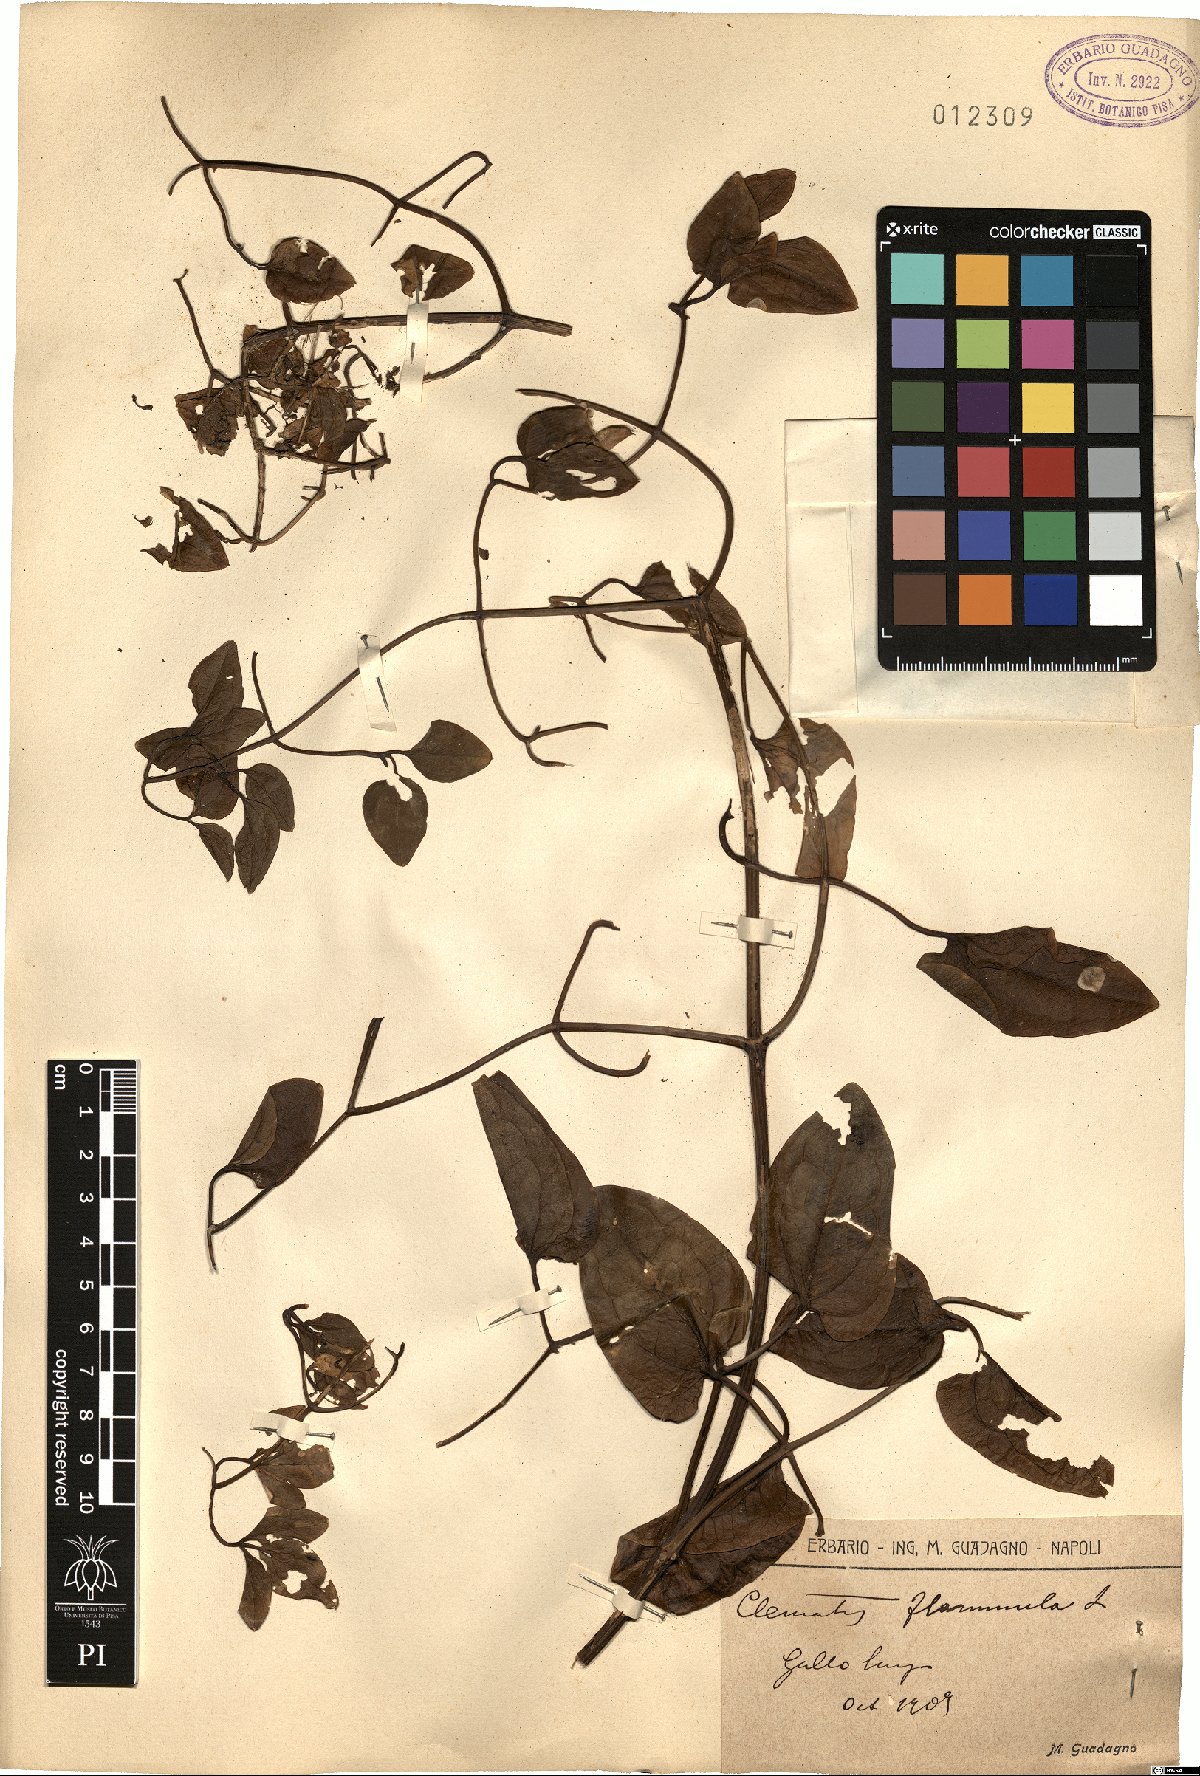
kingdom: Plantae
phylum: Tracheophyta
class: Magnoliopsida
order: Ranunculales
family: Ranunculaceae
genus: Clematis
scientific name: Clematis flammula
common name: Virgin's-bower
